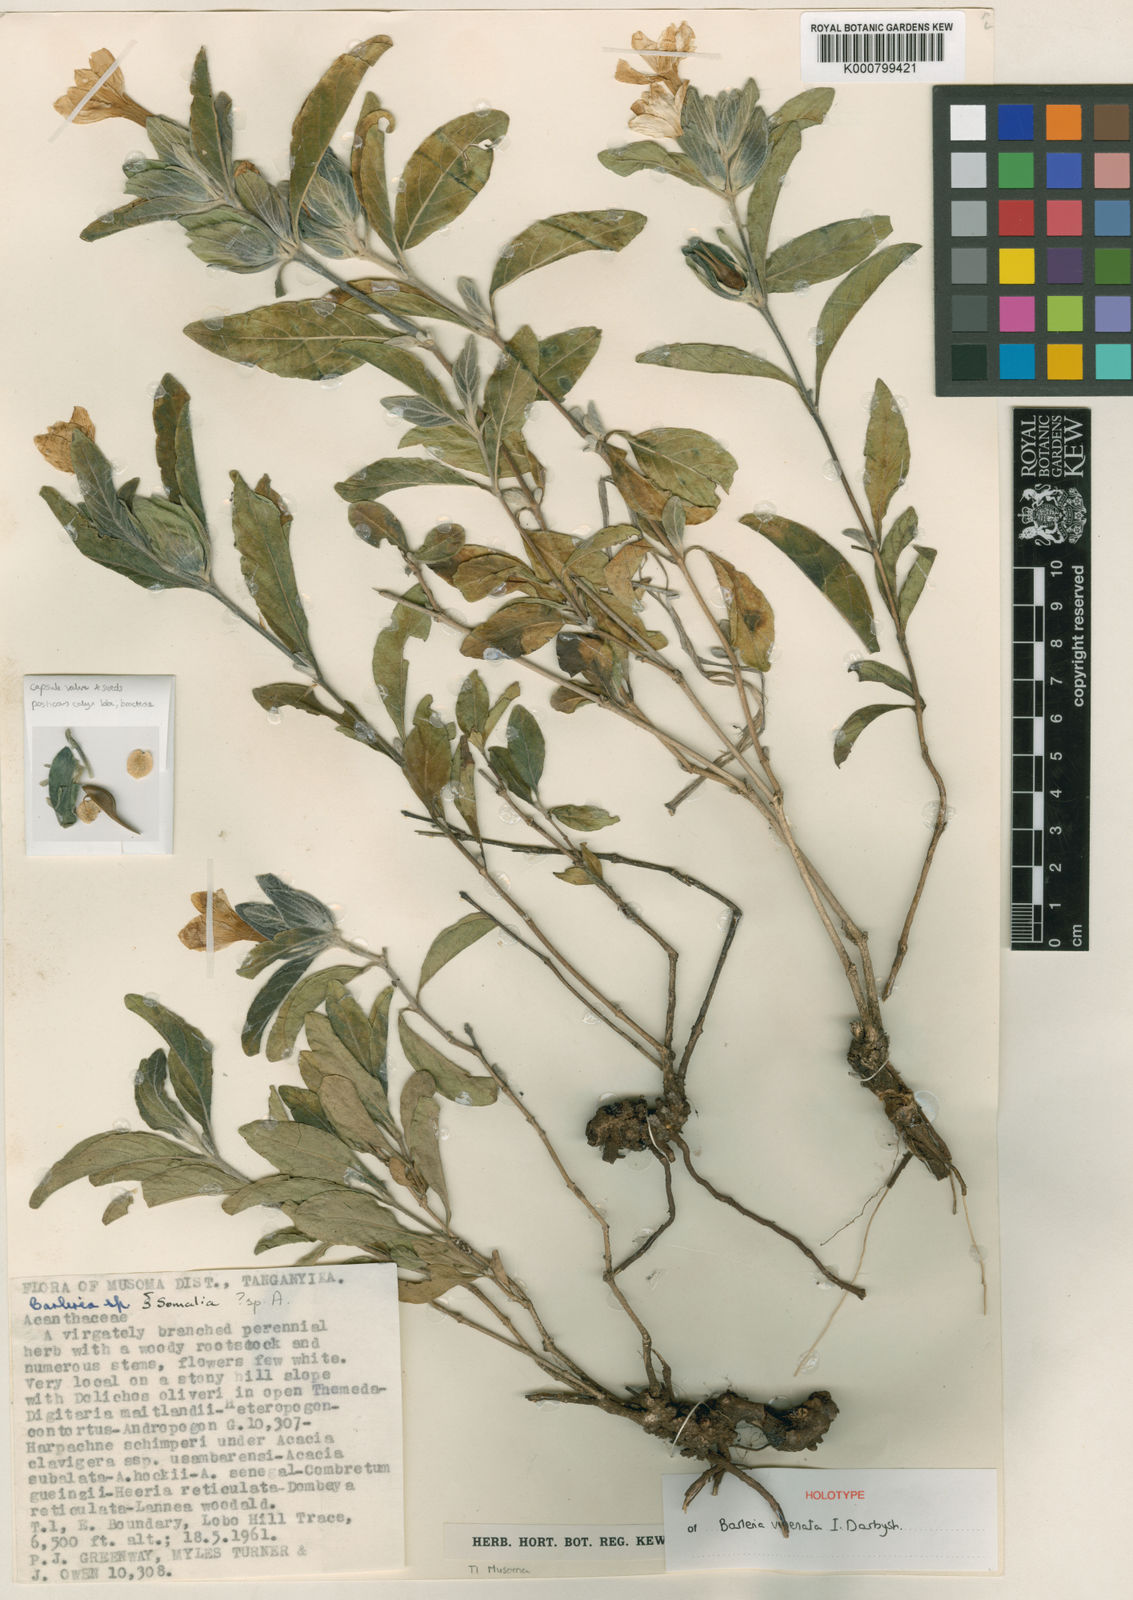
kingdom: Plantae
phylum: Tracheophyta
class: Magnoliopsida
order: Lamiales
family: Acanthaceae
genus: Barleria
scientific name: Barleria venenata
